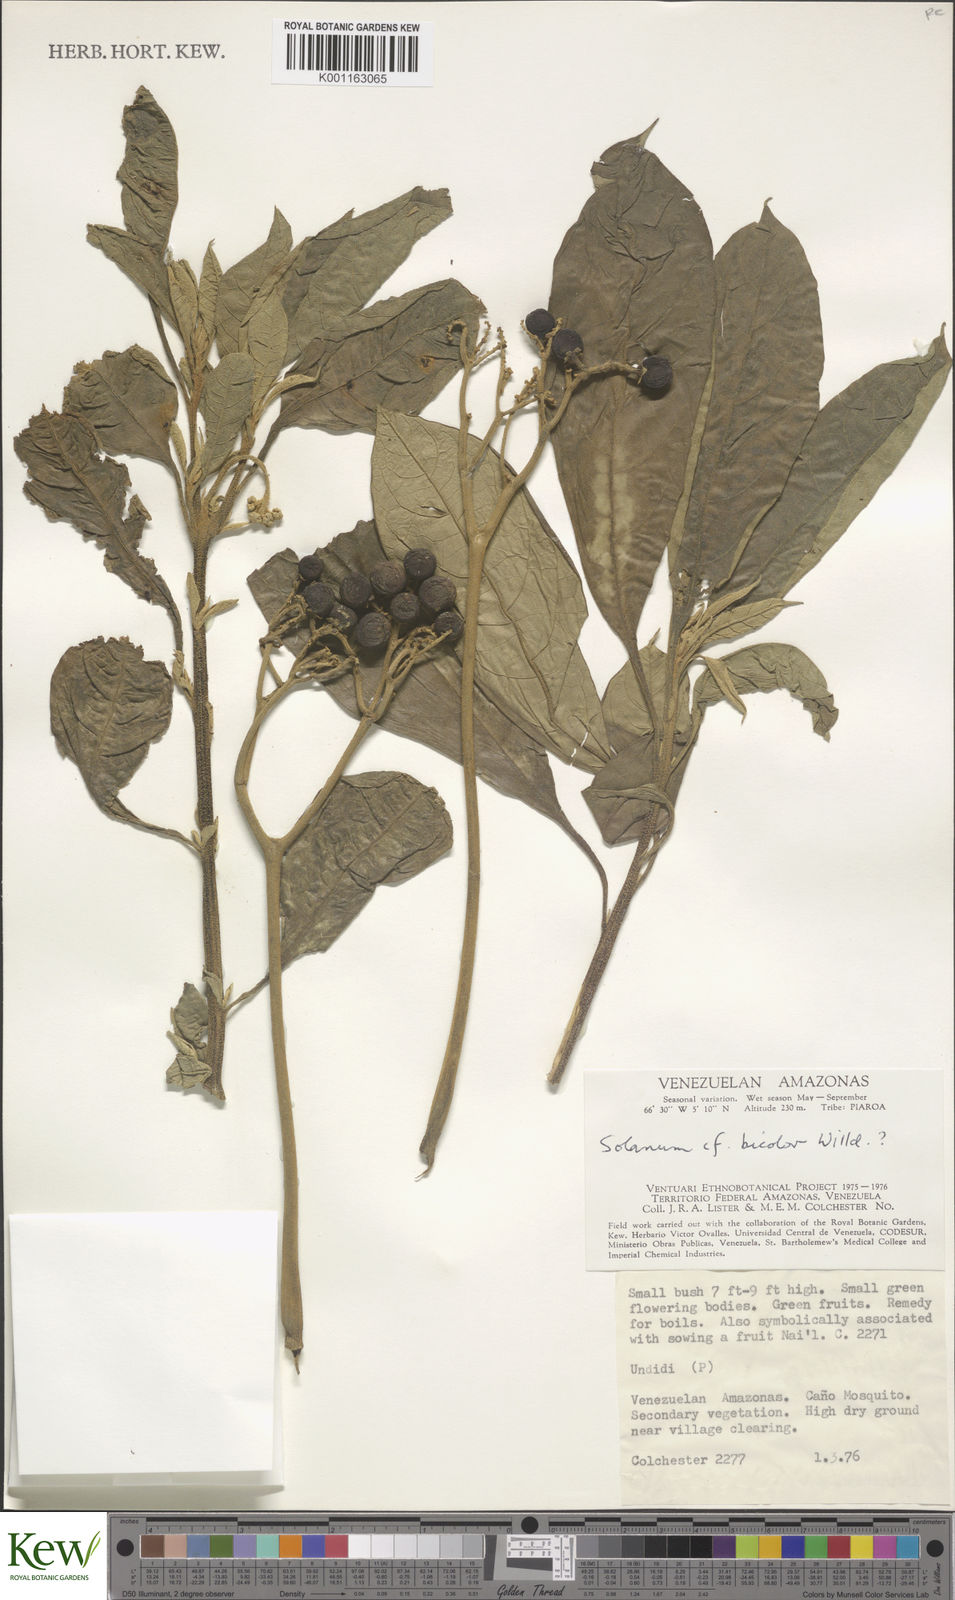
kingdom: Plantae
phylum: Tracheophyta
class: Magnoliopsida
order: Solanales
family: Solanaceae
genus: Solanum
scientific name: Solanum bicolor
